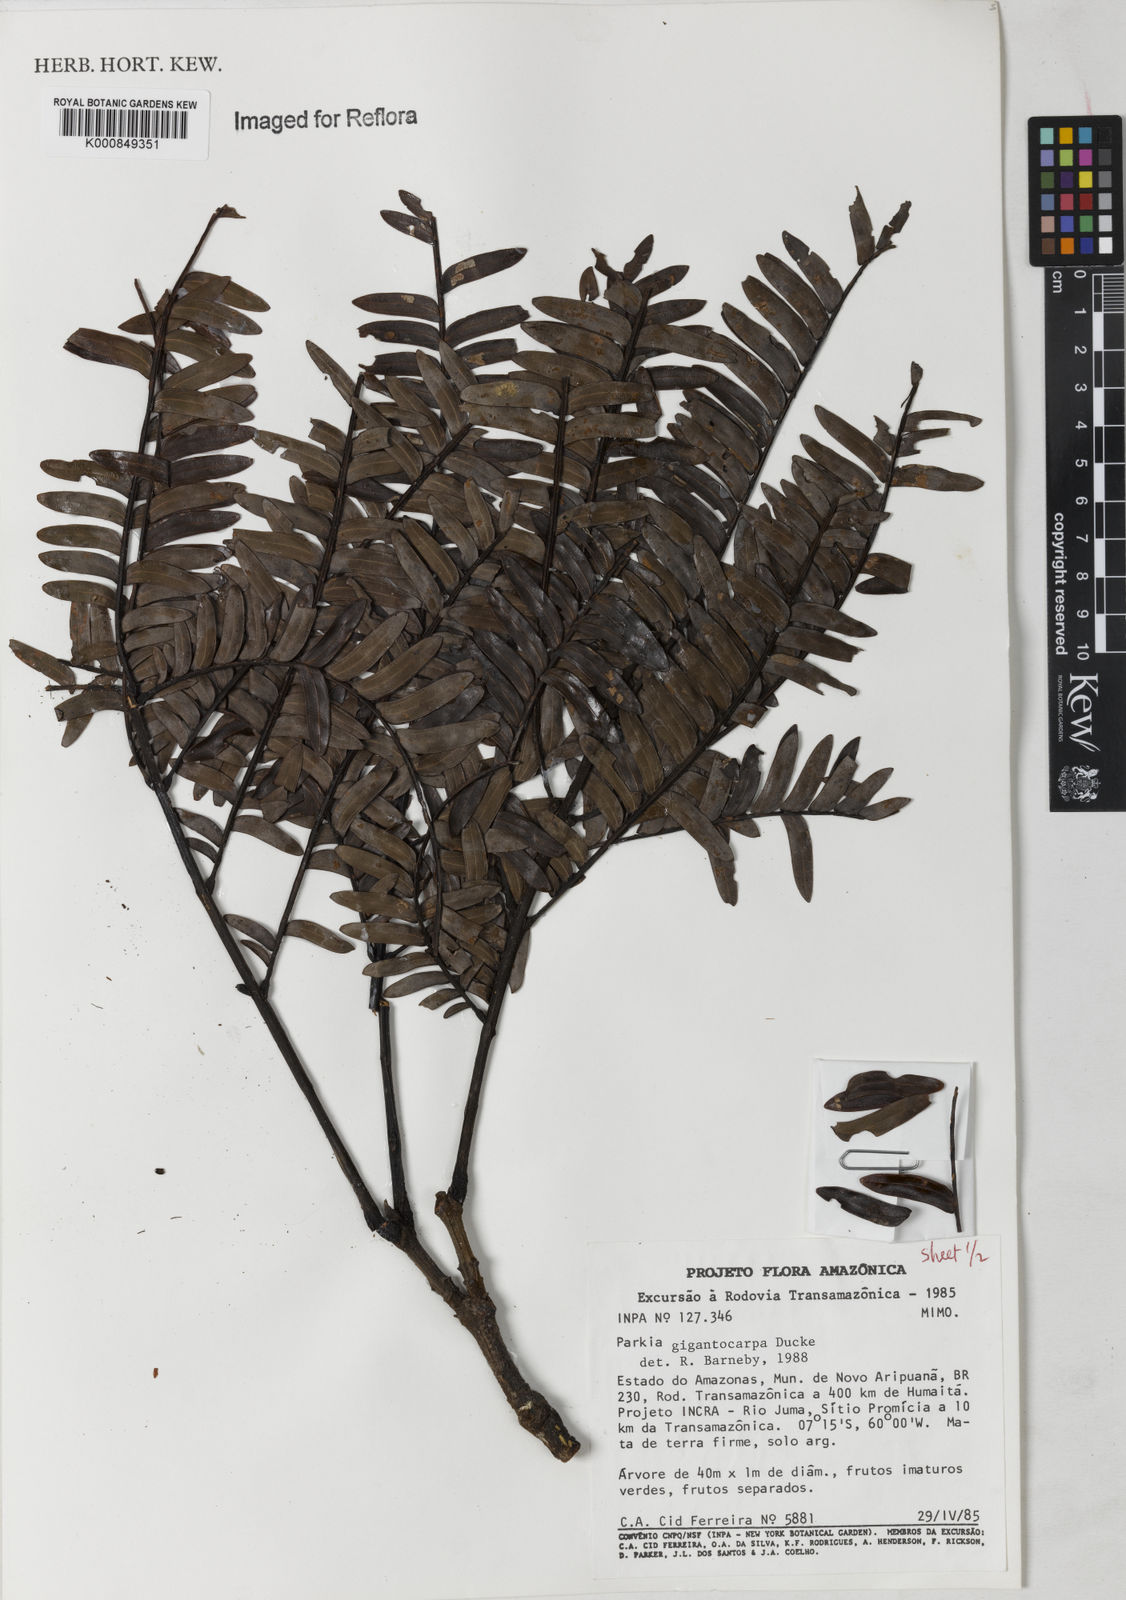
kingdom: Plantae
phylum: Tracheophyta
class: Magnoliopsida
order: Fabales
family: Fabaceae
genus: Parkia
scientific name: Parkia gigantocarpa
